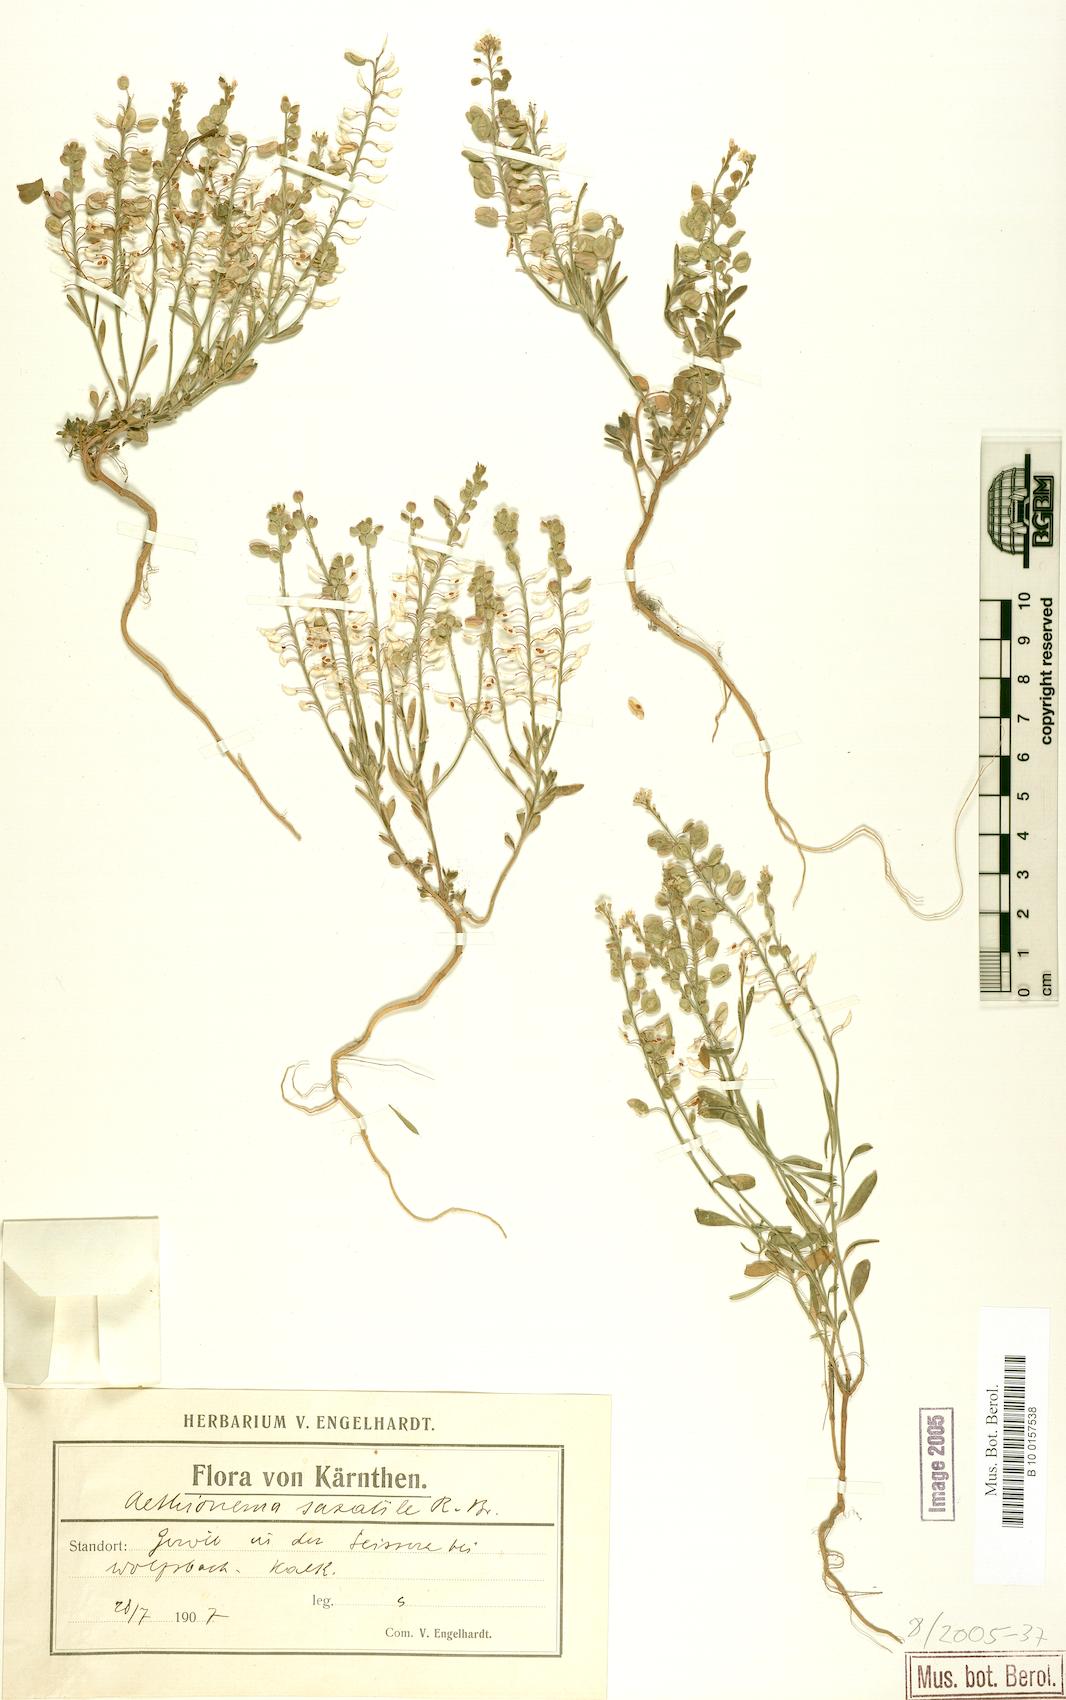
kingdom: Plantae
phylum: Tracheophyta
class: Magnoliopsida
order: Brassicales
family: Brassicaceae
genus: Aethionema
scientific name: Aethionema saxatile
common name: Burnt candytuft
